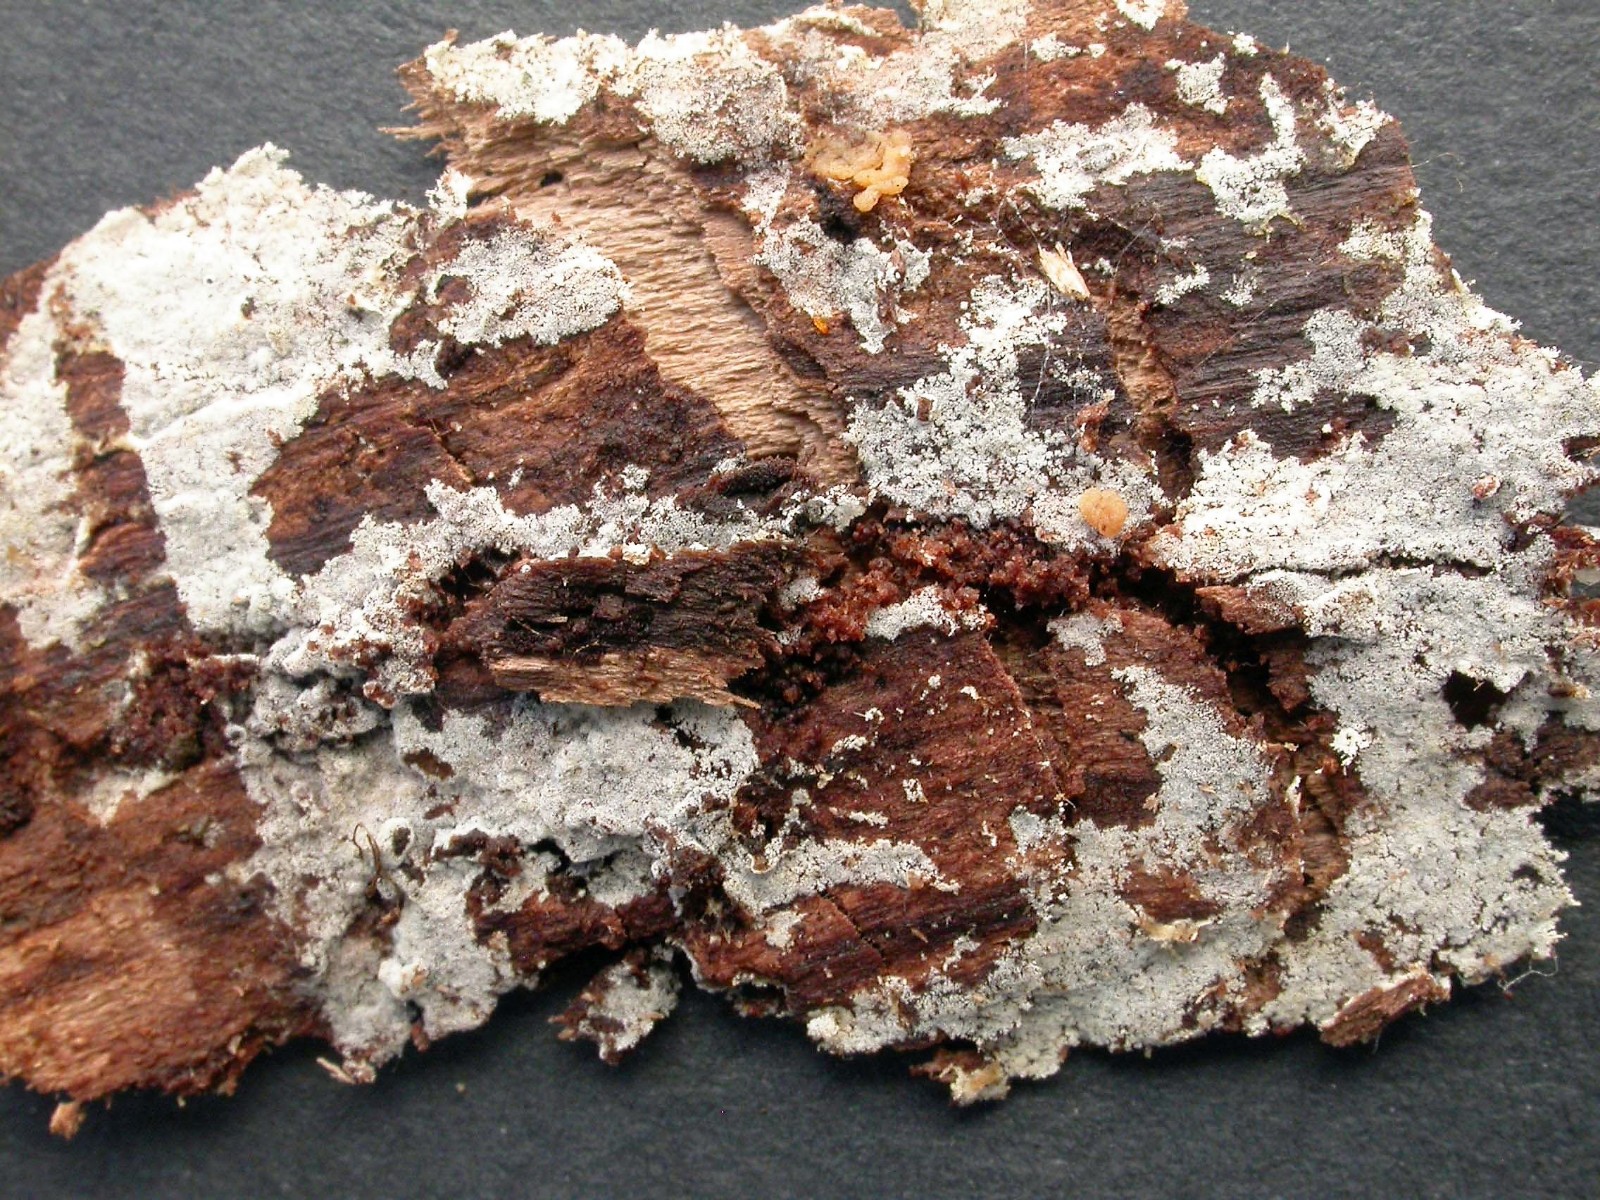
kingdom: Fungi
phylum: Basidiomycota
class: Agaricomycetes
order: Cantharellales
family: Botryobasidiaceae
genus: Botryobasidium
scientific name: Botryobasidium laeve
